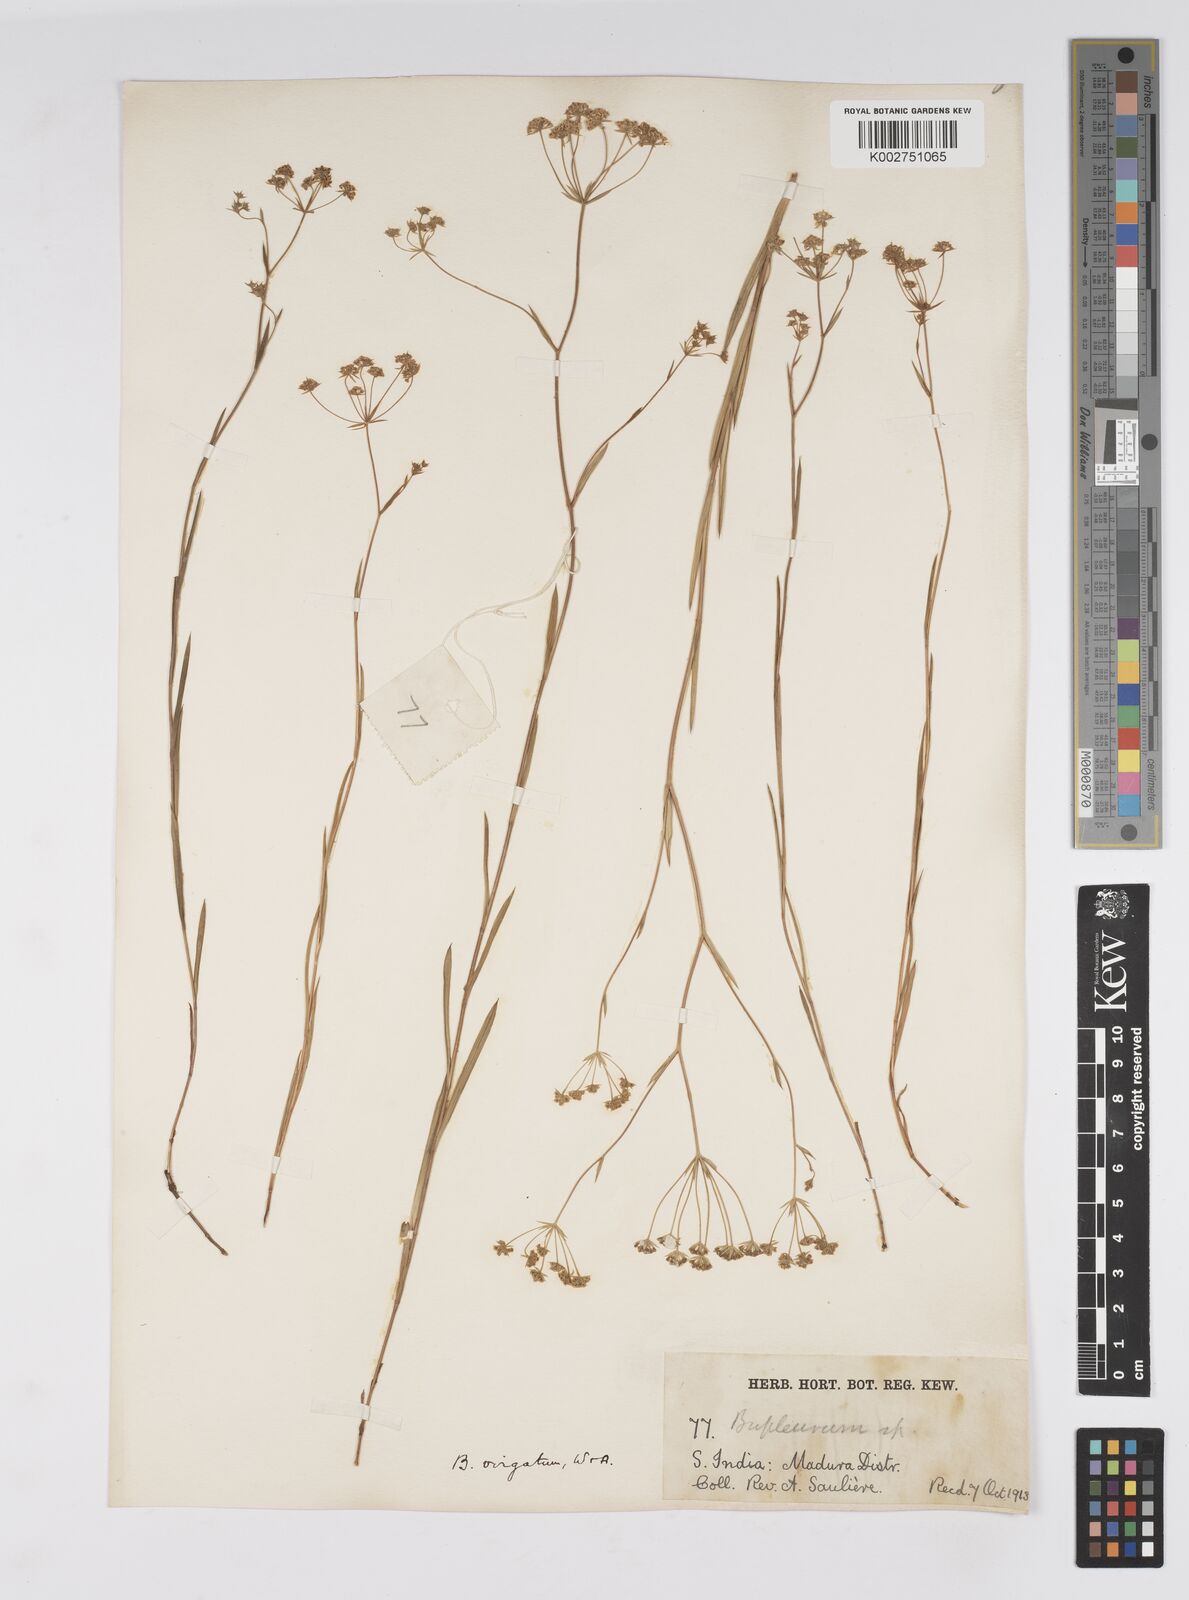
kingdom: Plantae
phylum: Tracheophyta
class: Magnoliopsida
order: Apiales
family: Apiaceae
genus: Bupleurum
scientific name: Bupleurum
